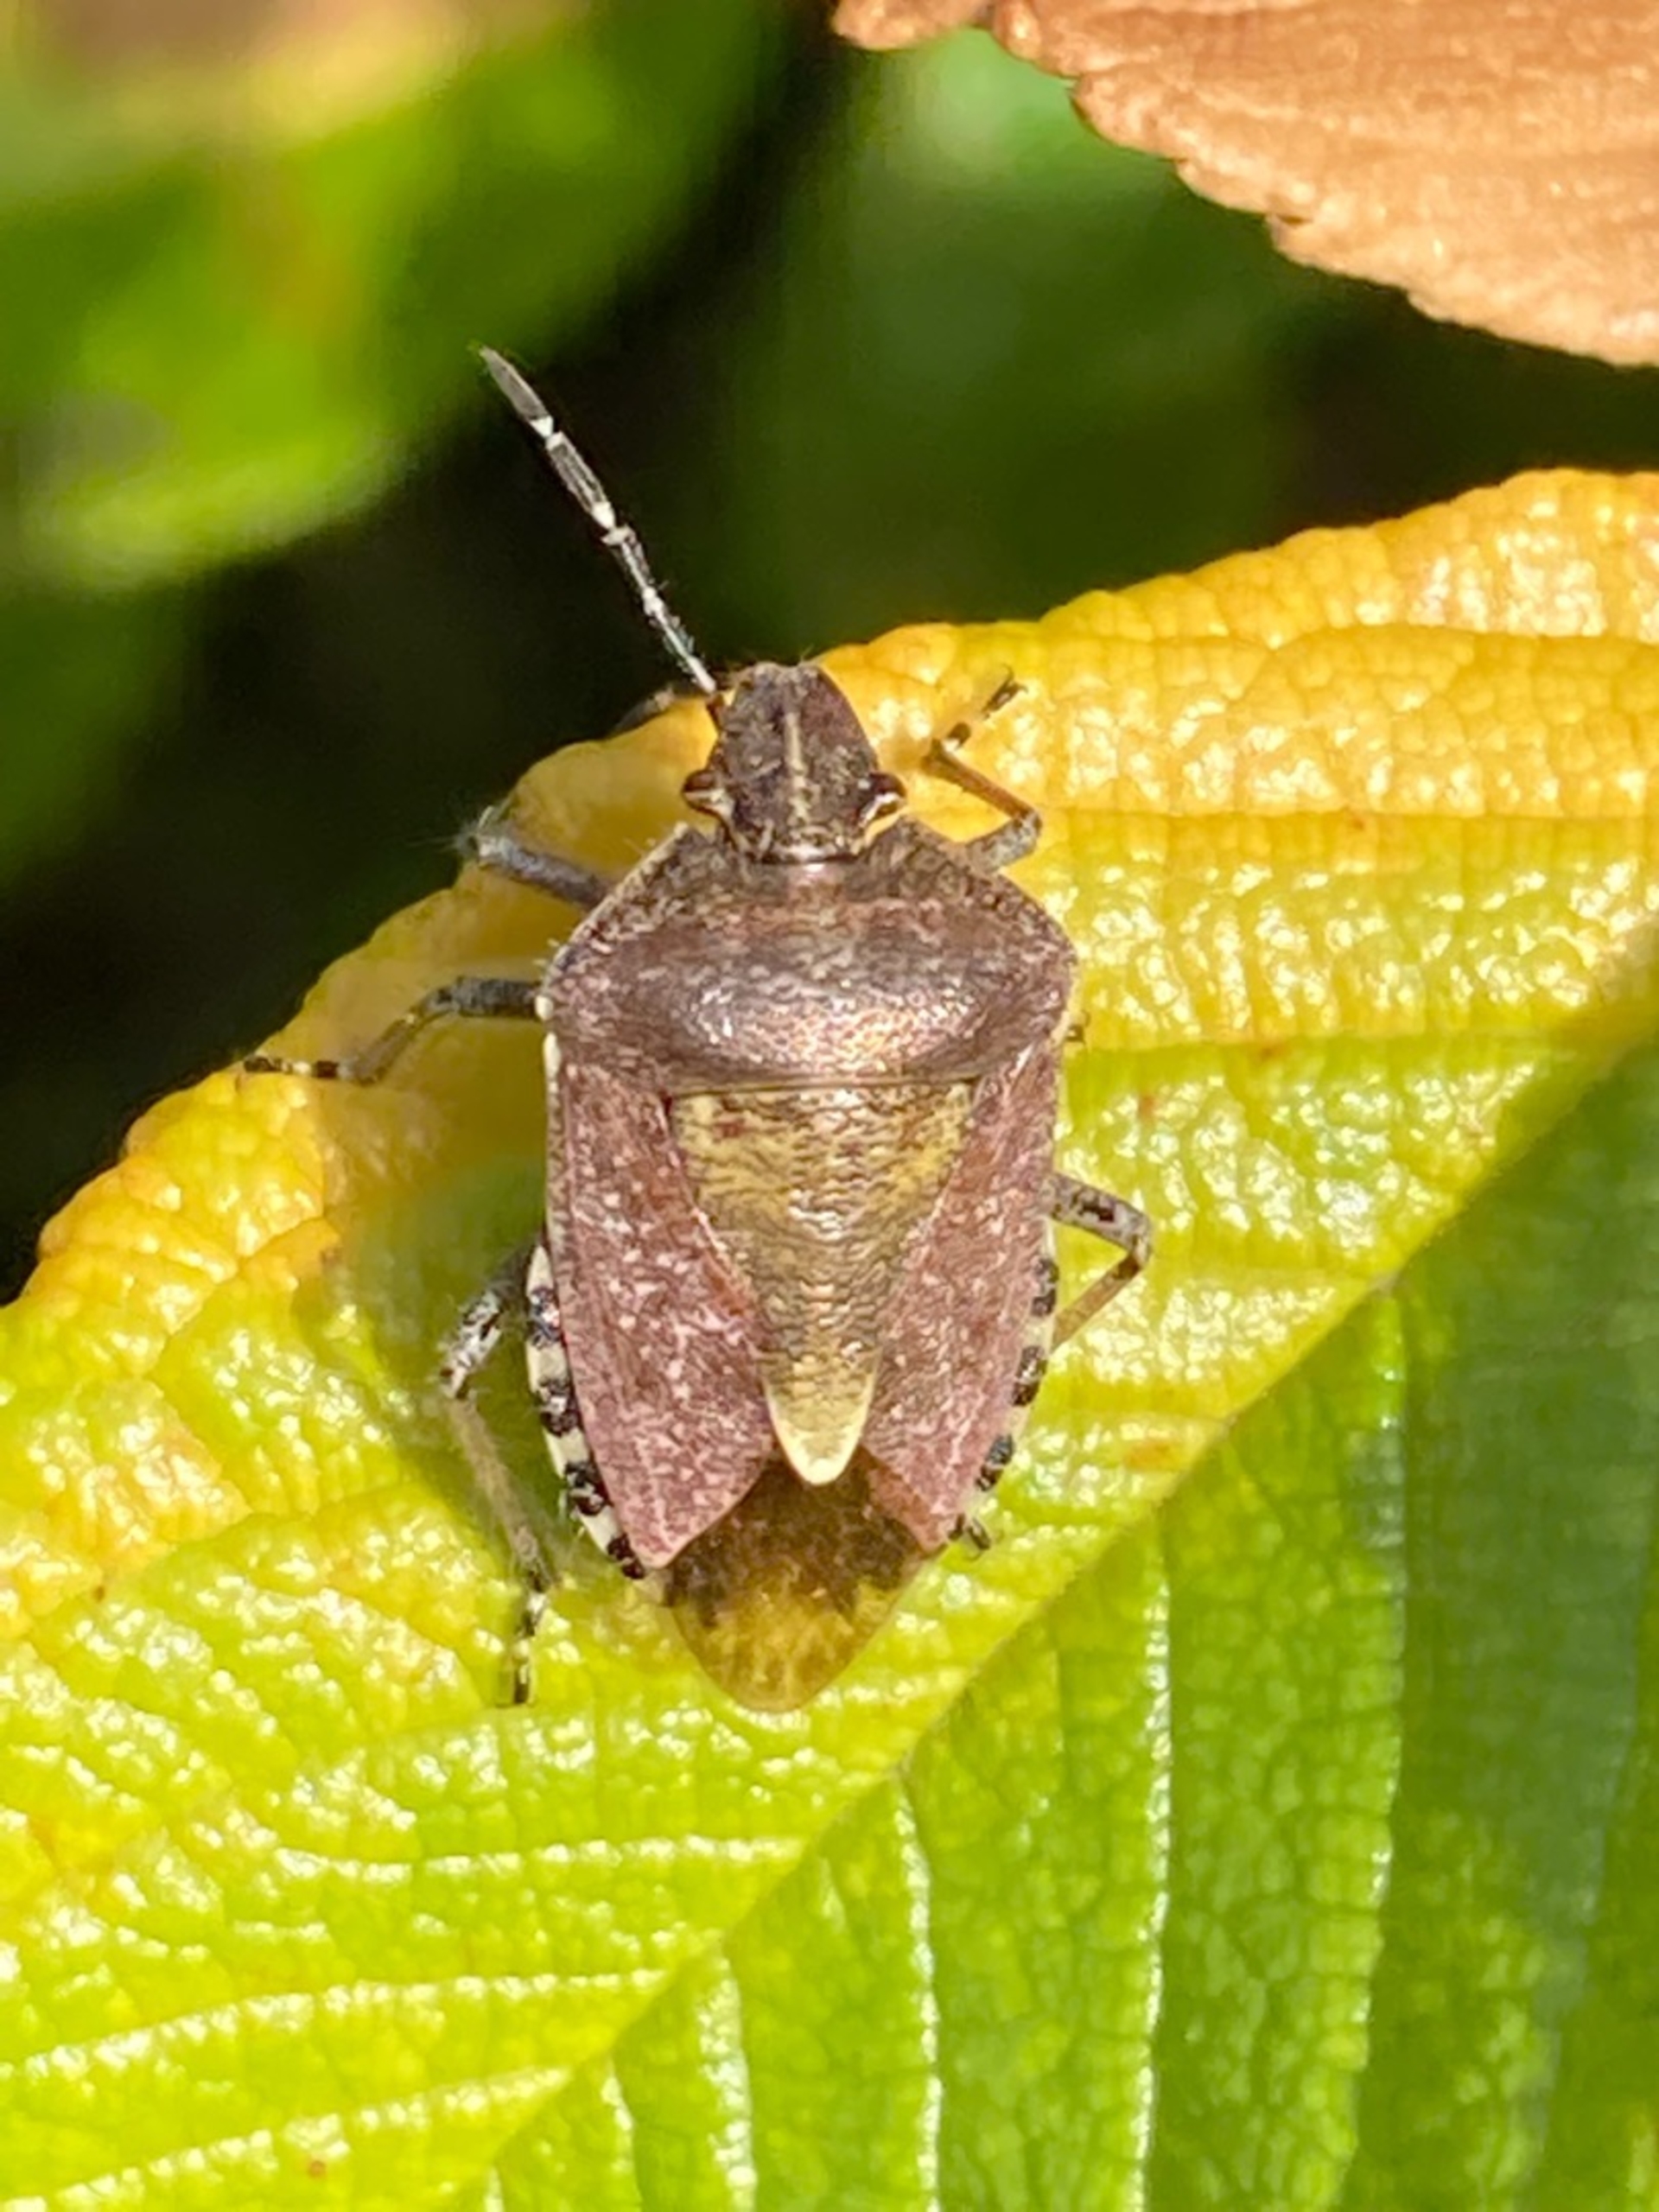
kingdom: Animalia
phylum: Arthropoda
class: Insecta
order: Hemiptera
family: Pentatomidae
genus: Dolycoris
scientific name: Dolycoris baccarum
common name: Almindelig bærtæge
